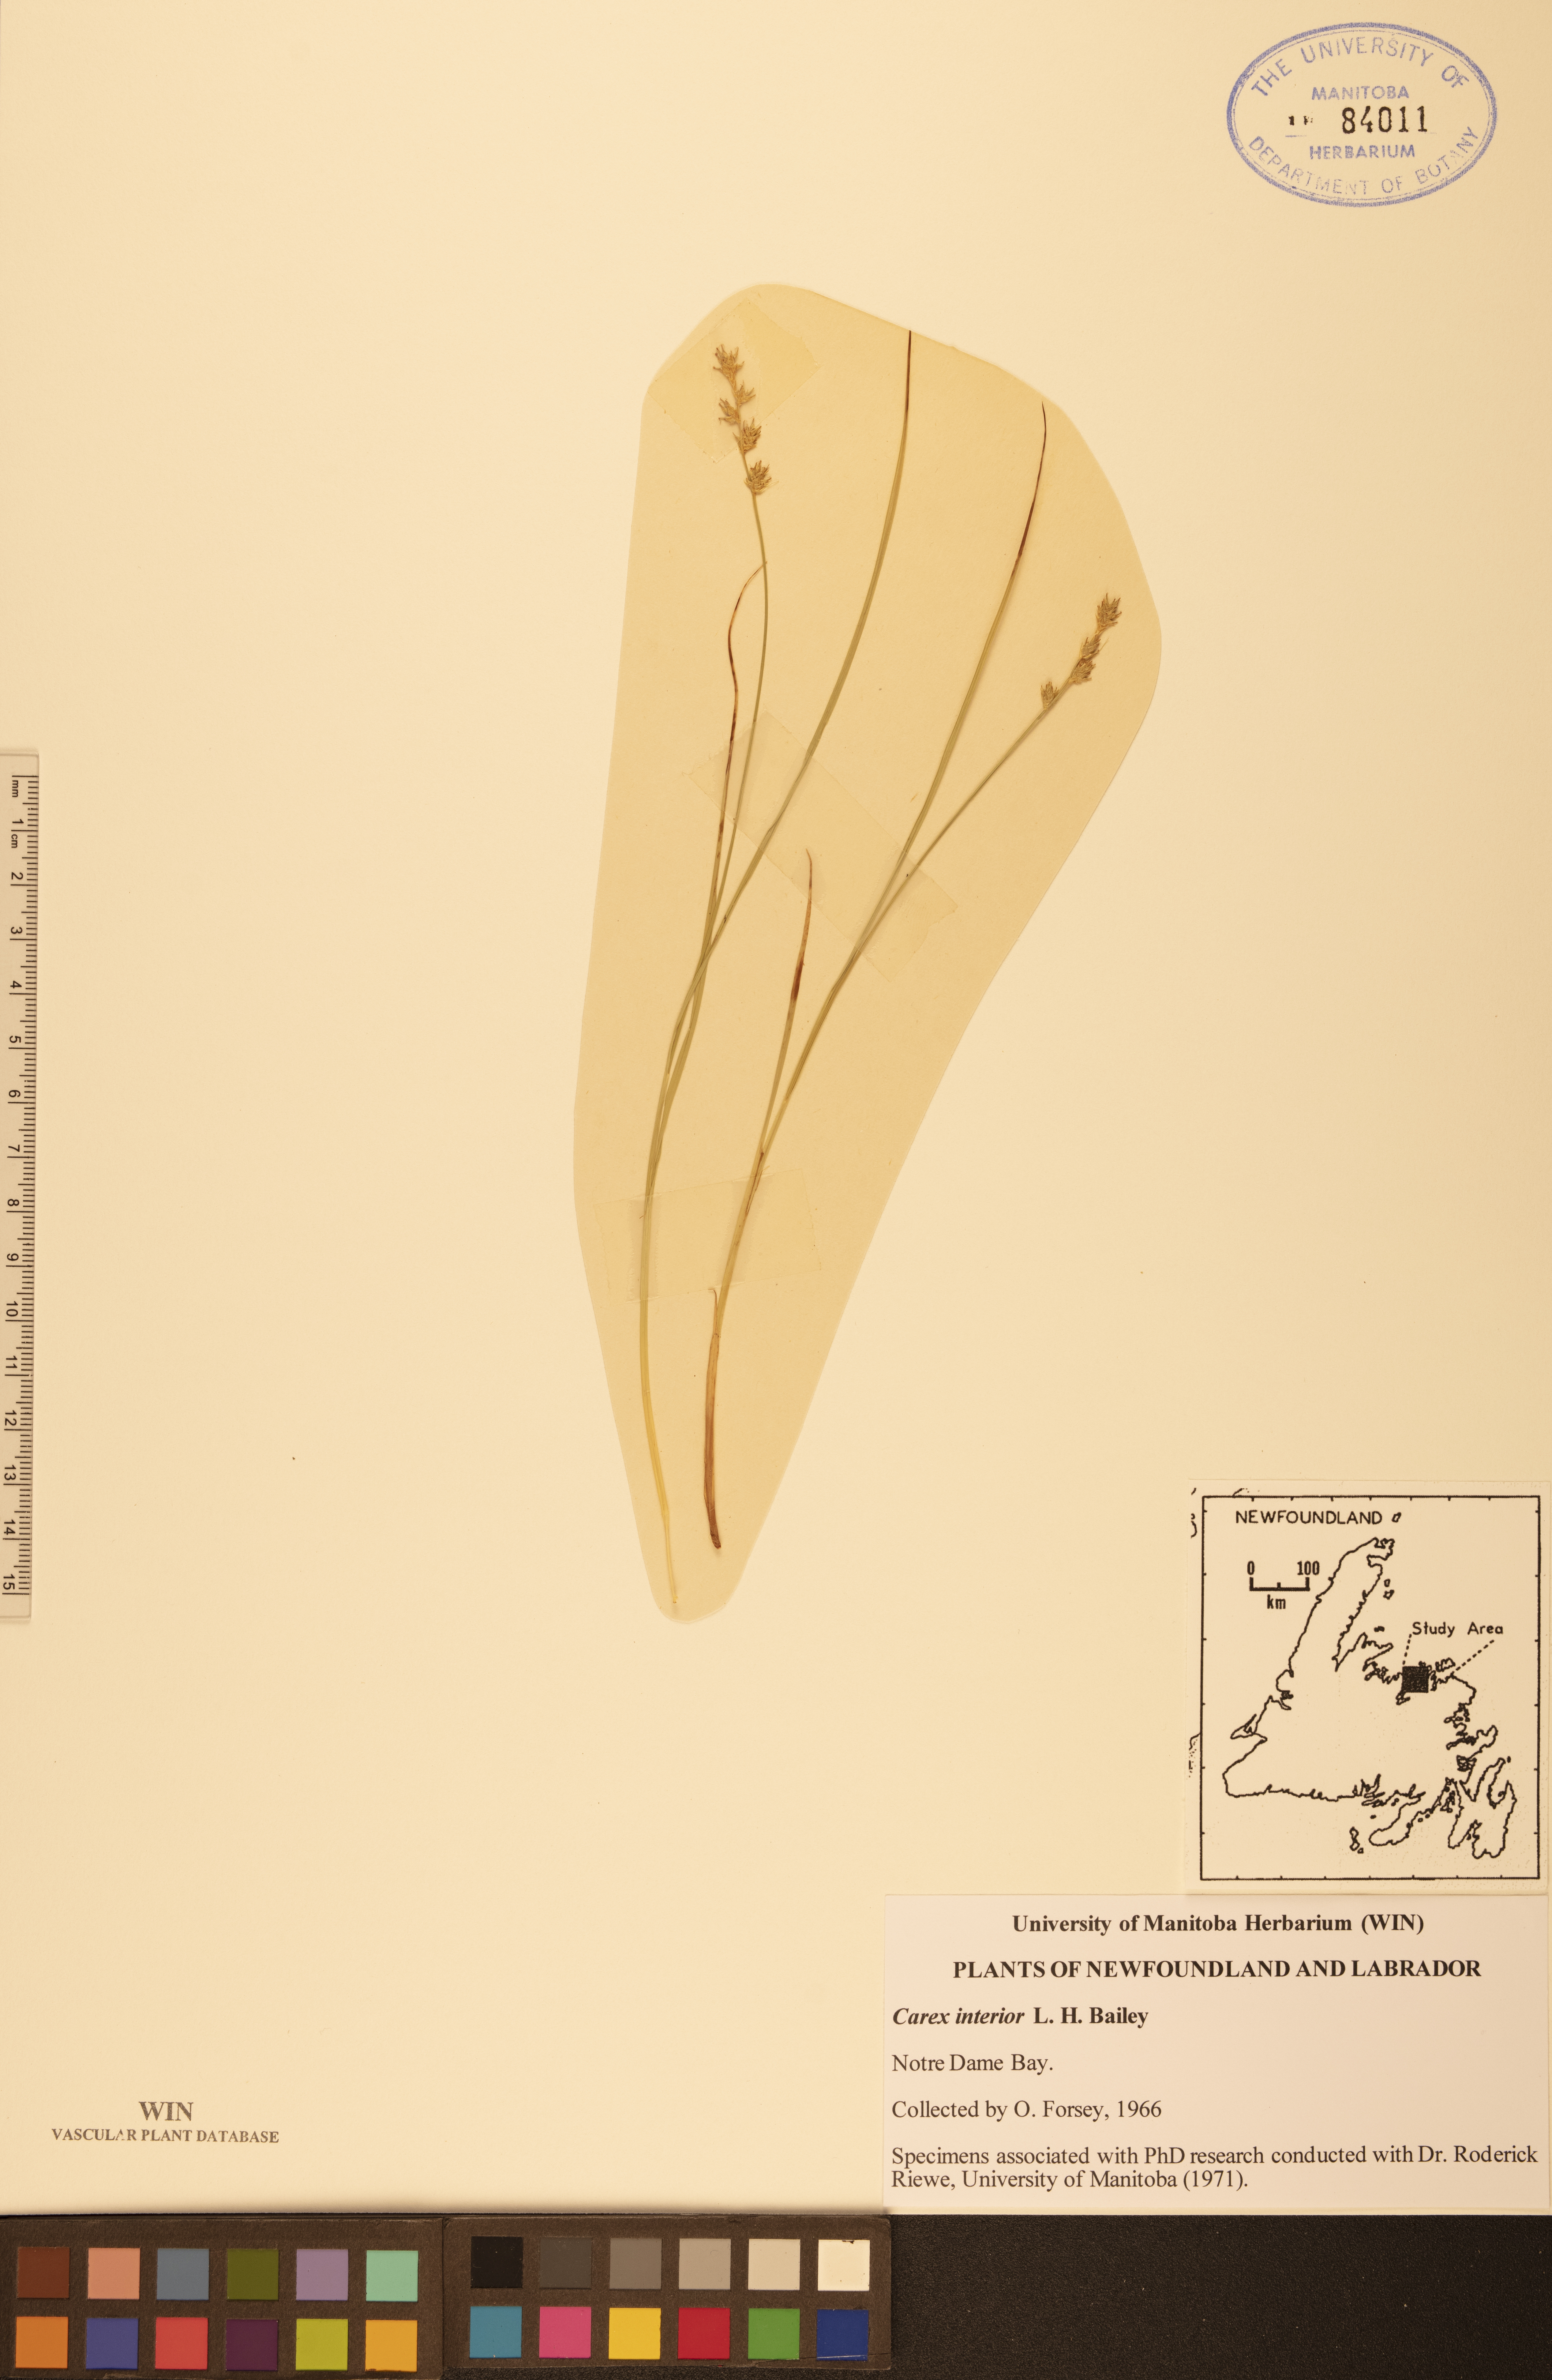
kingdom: Plantae
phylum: Tracheophyta
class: Liliopsida
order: Poales
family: Cyperaceae
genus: Carex
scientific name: Carex interior
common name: Inland sedge
